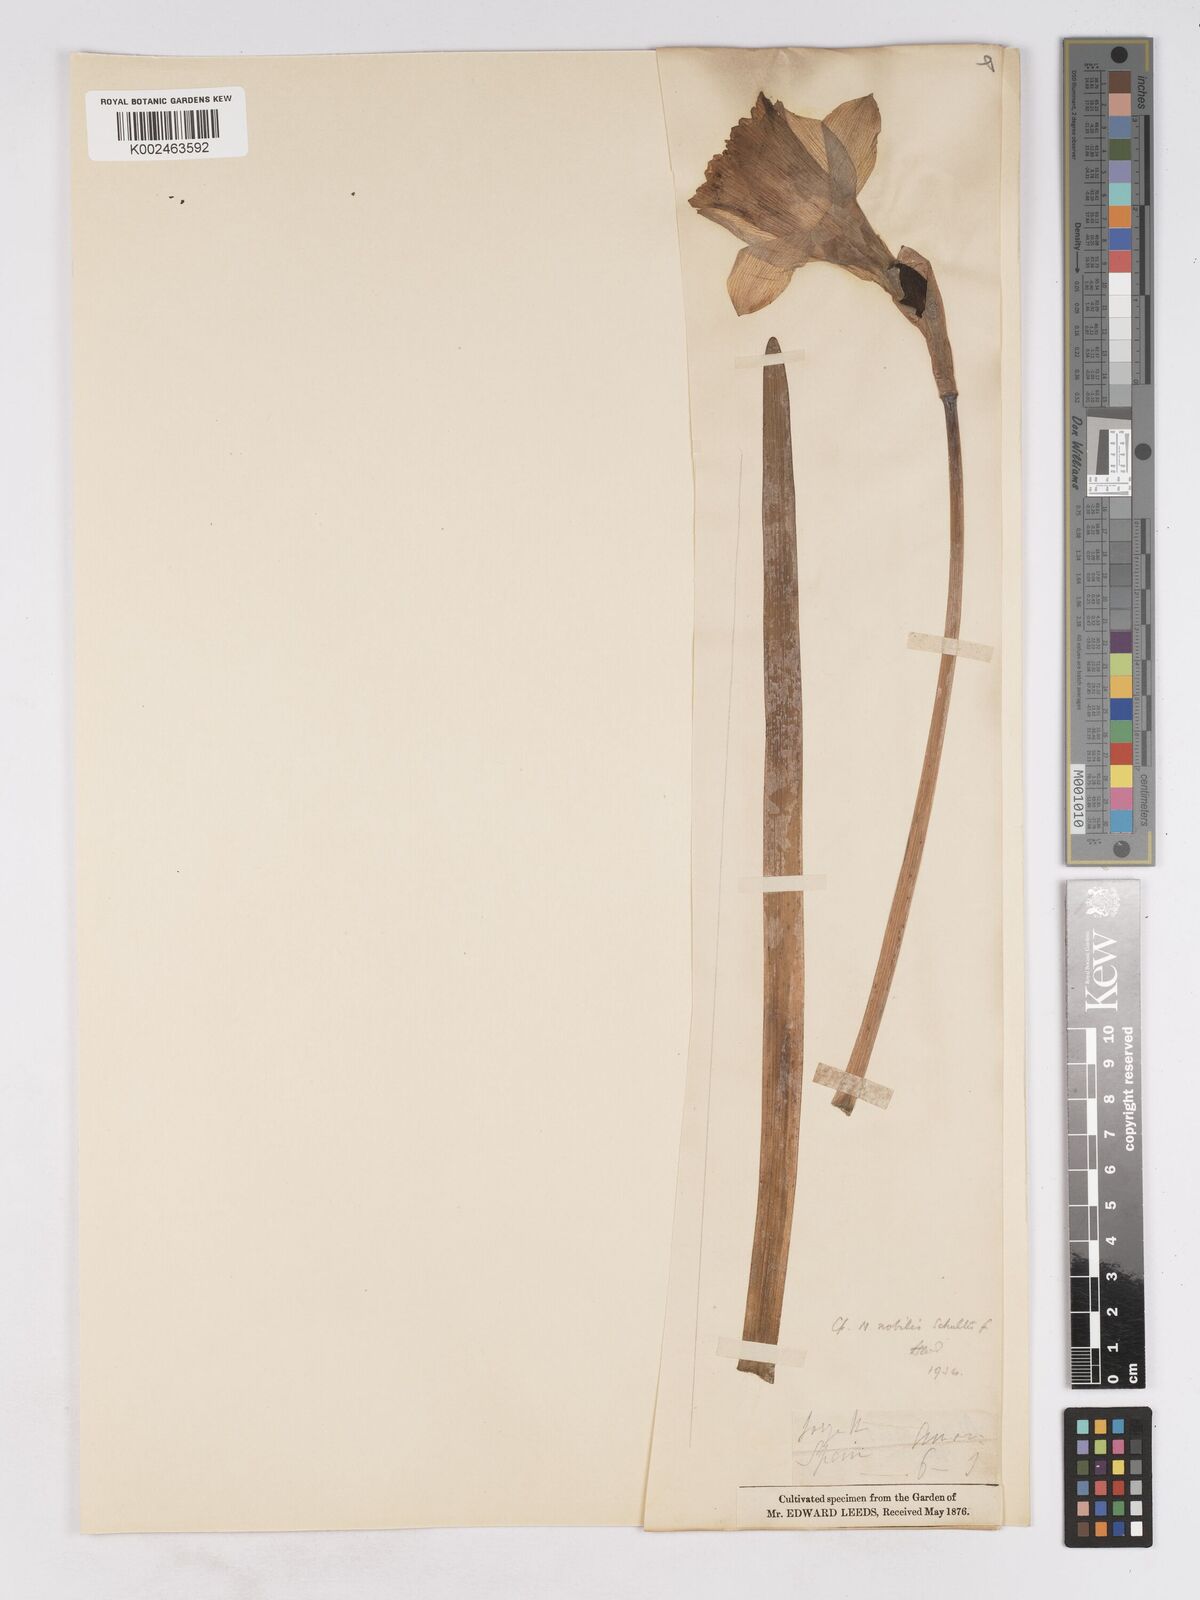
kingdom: Plantae
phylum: Tracheophyta
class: Liliopsida
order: Asparagales
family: Amaryllidaceae
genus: Narcissus
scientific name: Narcissus nobilis
